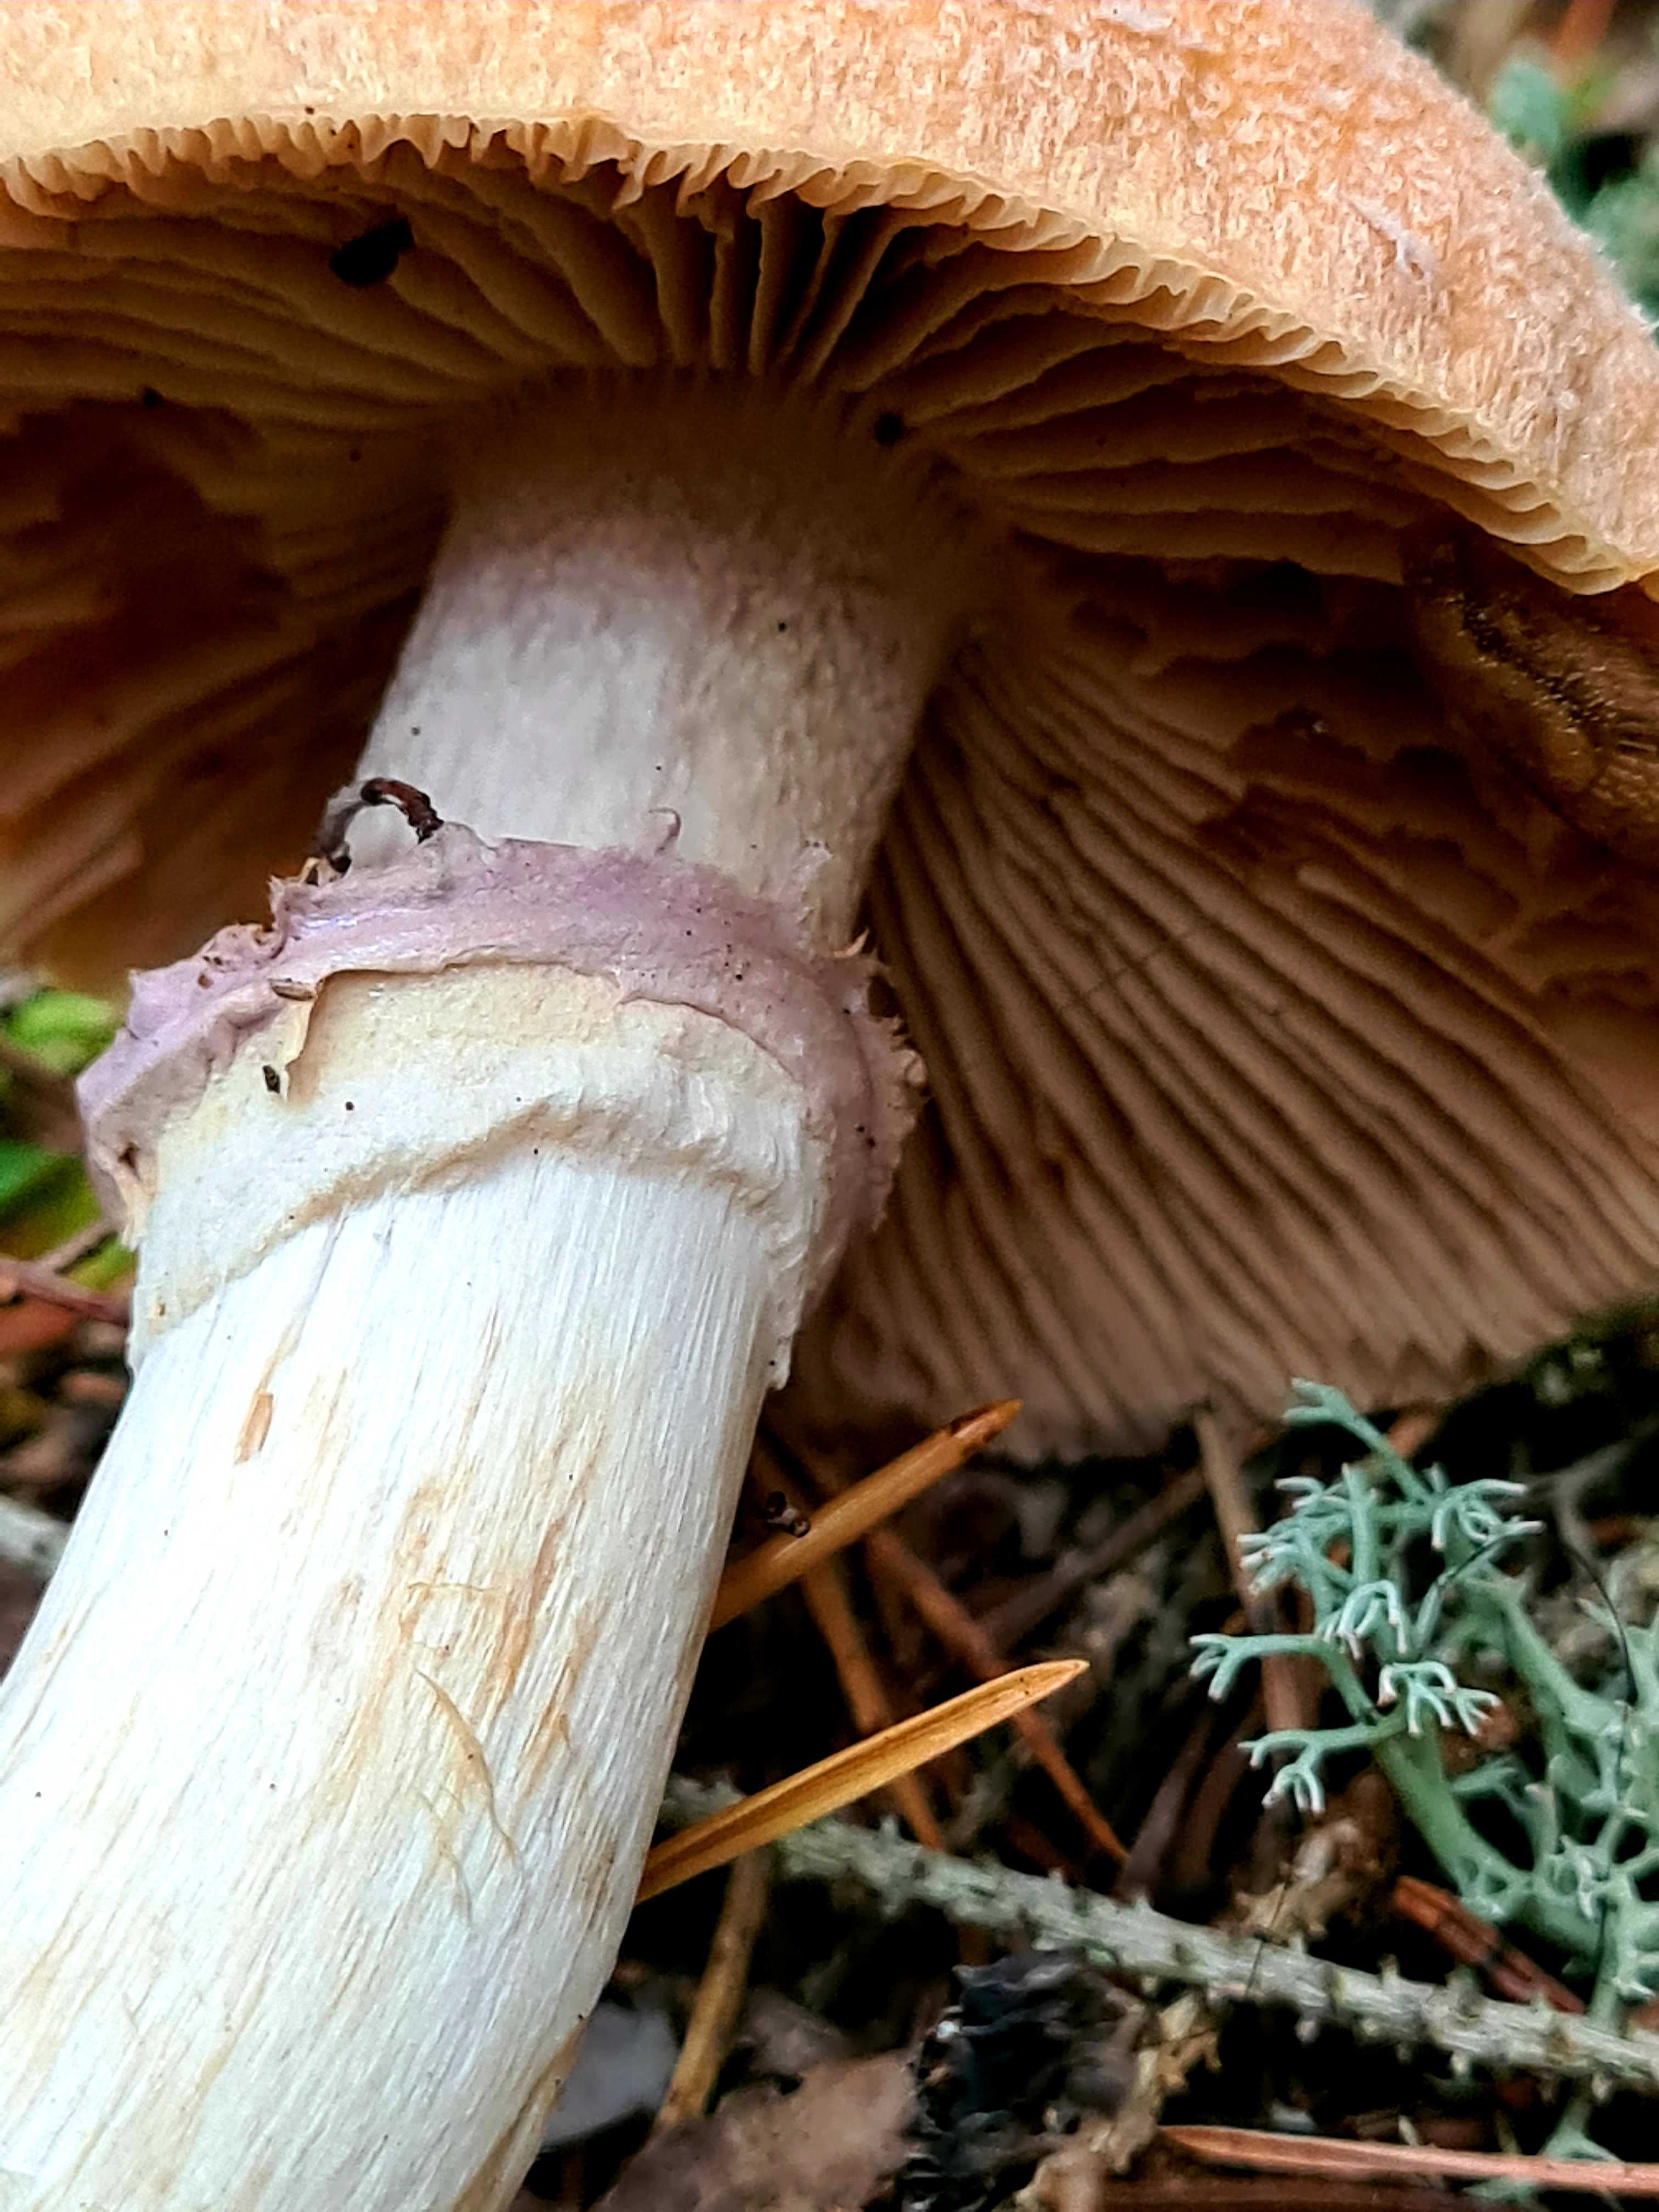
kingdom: Fungi
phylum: Basidiomycota
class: Agaricomycetes
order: Agaricales
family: Cortinariaceae
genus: Cortinarius
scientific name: Cortinarius caperatus
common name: klidhat
